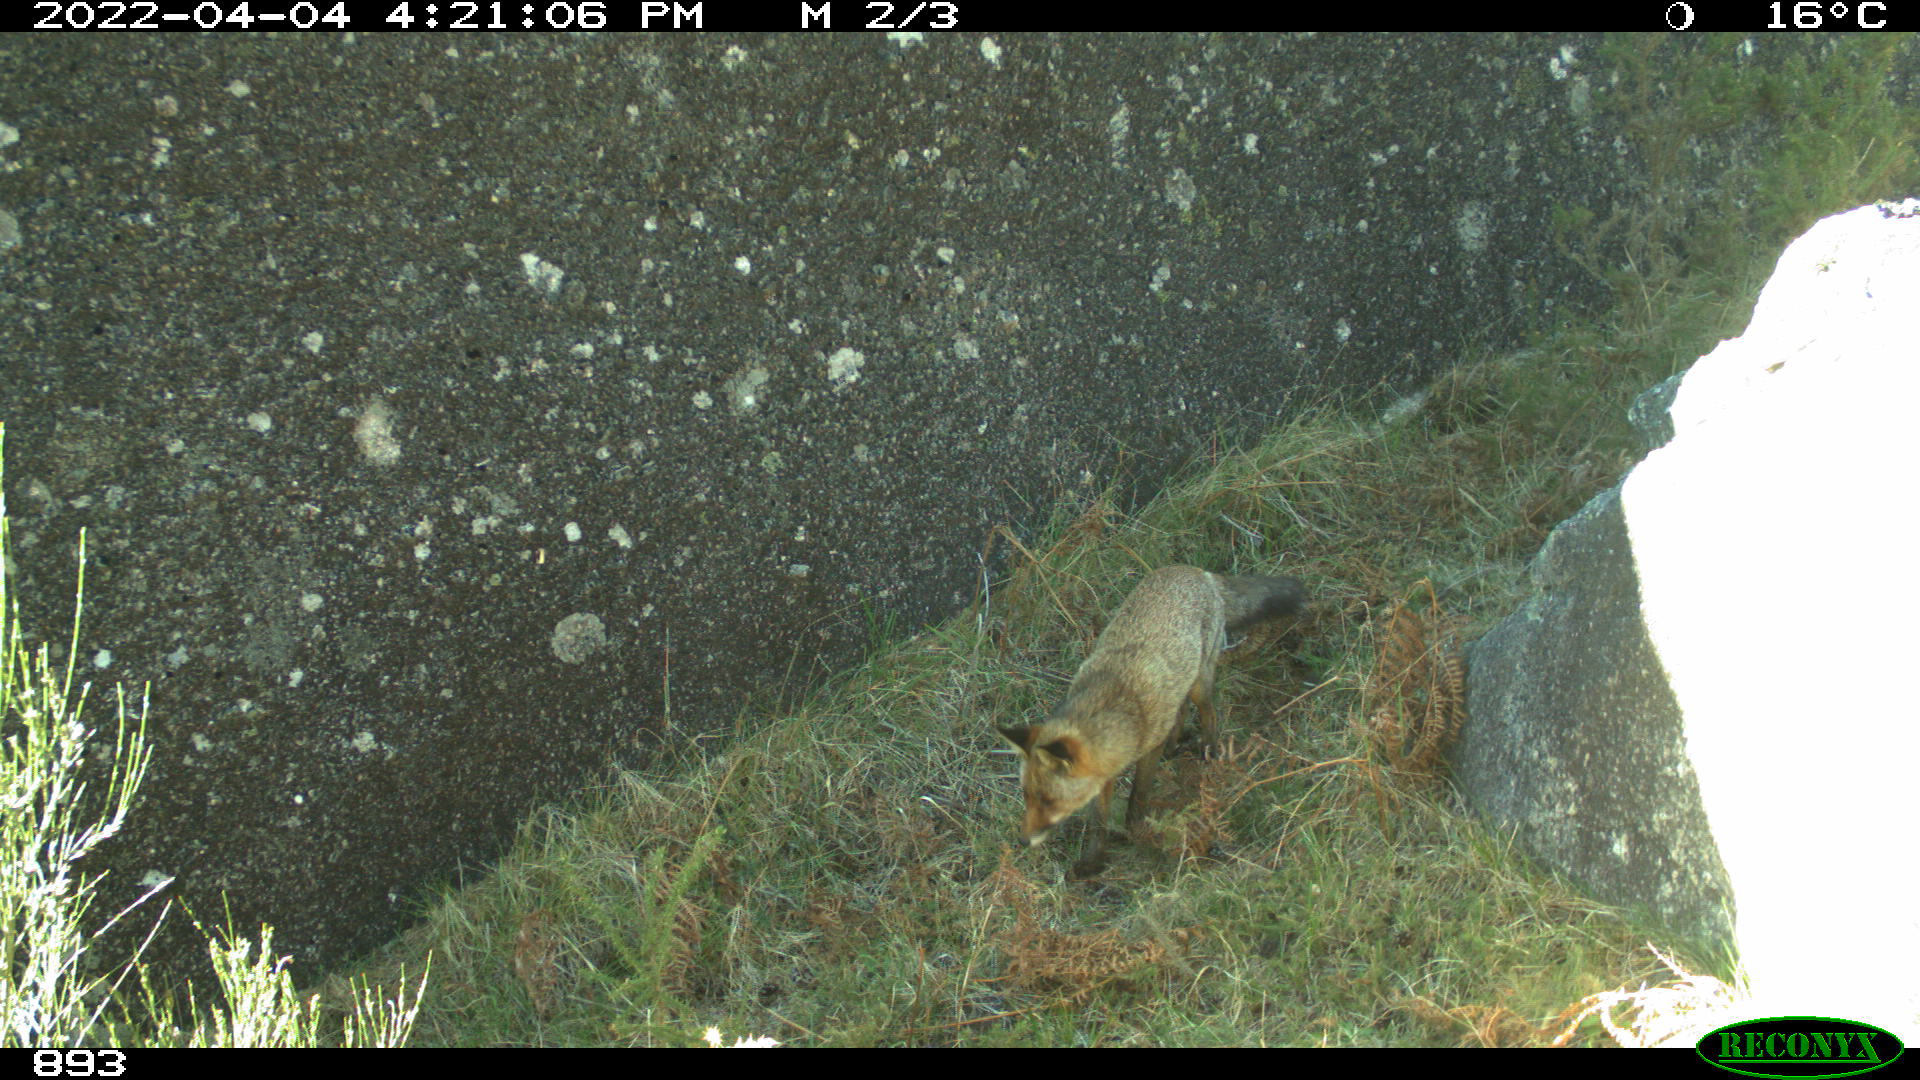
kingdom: Animalia
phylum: Chordata
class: Mammalia
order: Carnivora
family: Canidae
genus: Vulpes
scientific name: Vulpes vulpes
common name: Red fox
